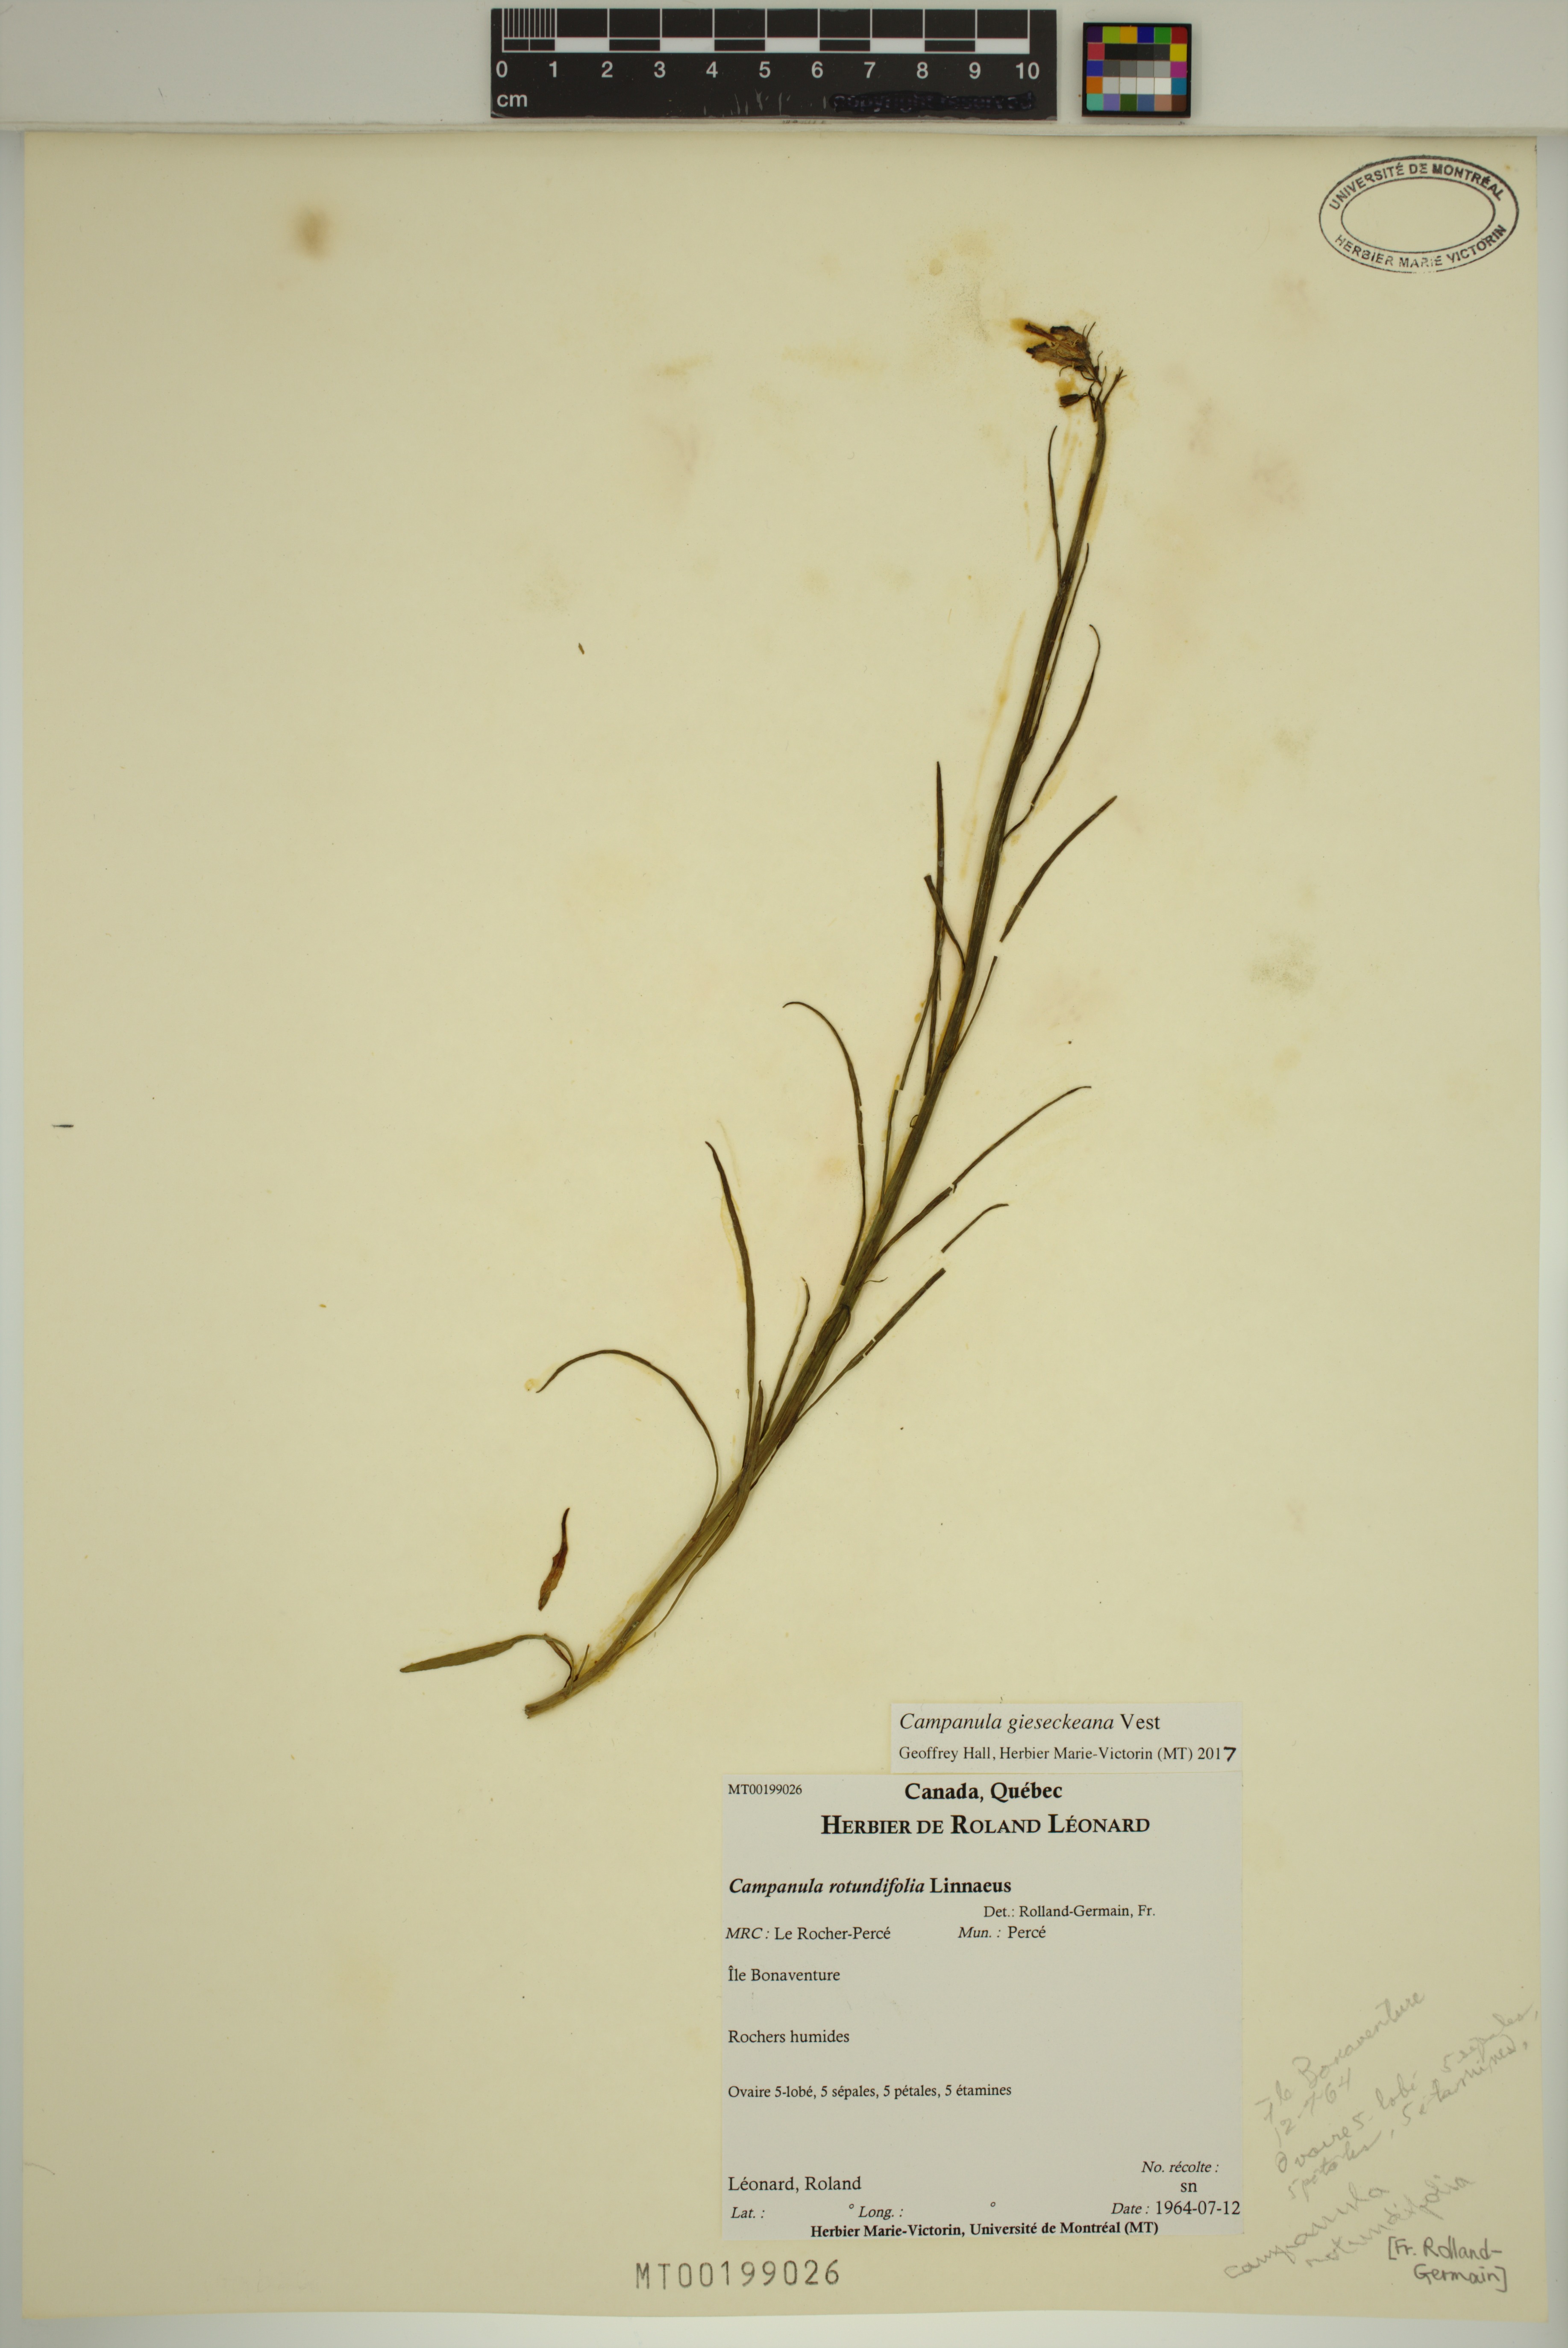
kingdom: Plantae
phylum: Tracheophyta
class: Magnoliopsida
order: Asterales
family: Campanulaceae
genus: Campanula
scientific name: Campanula rotundifolia
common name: Harebell
